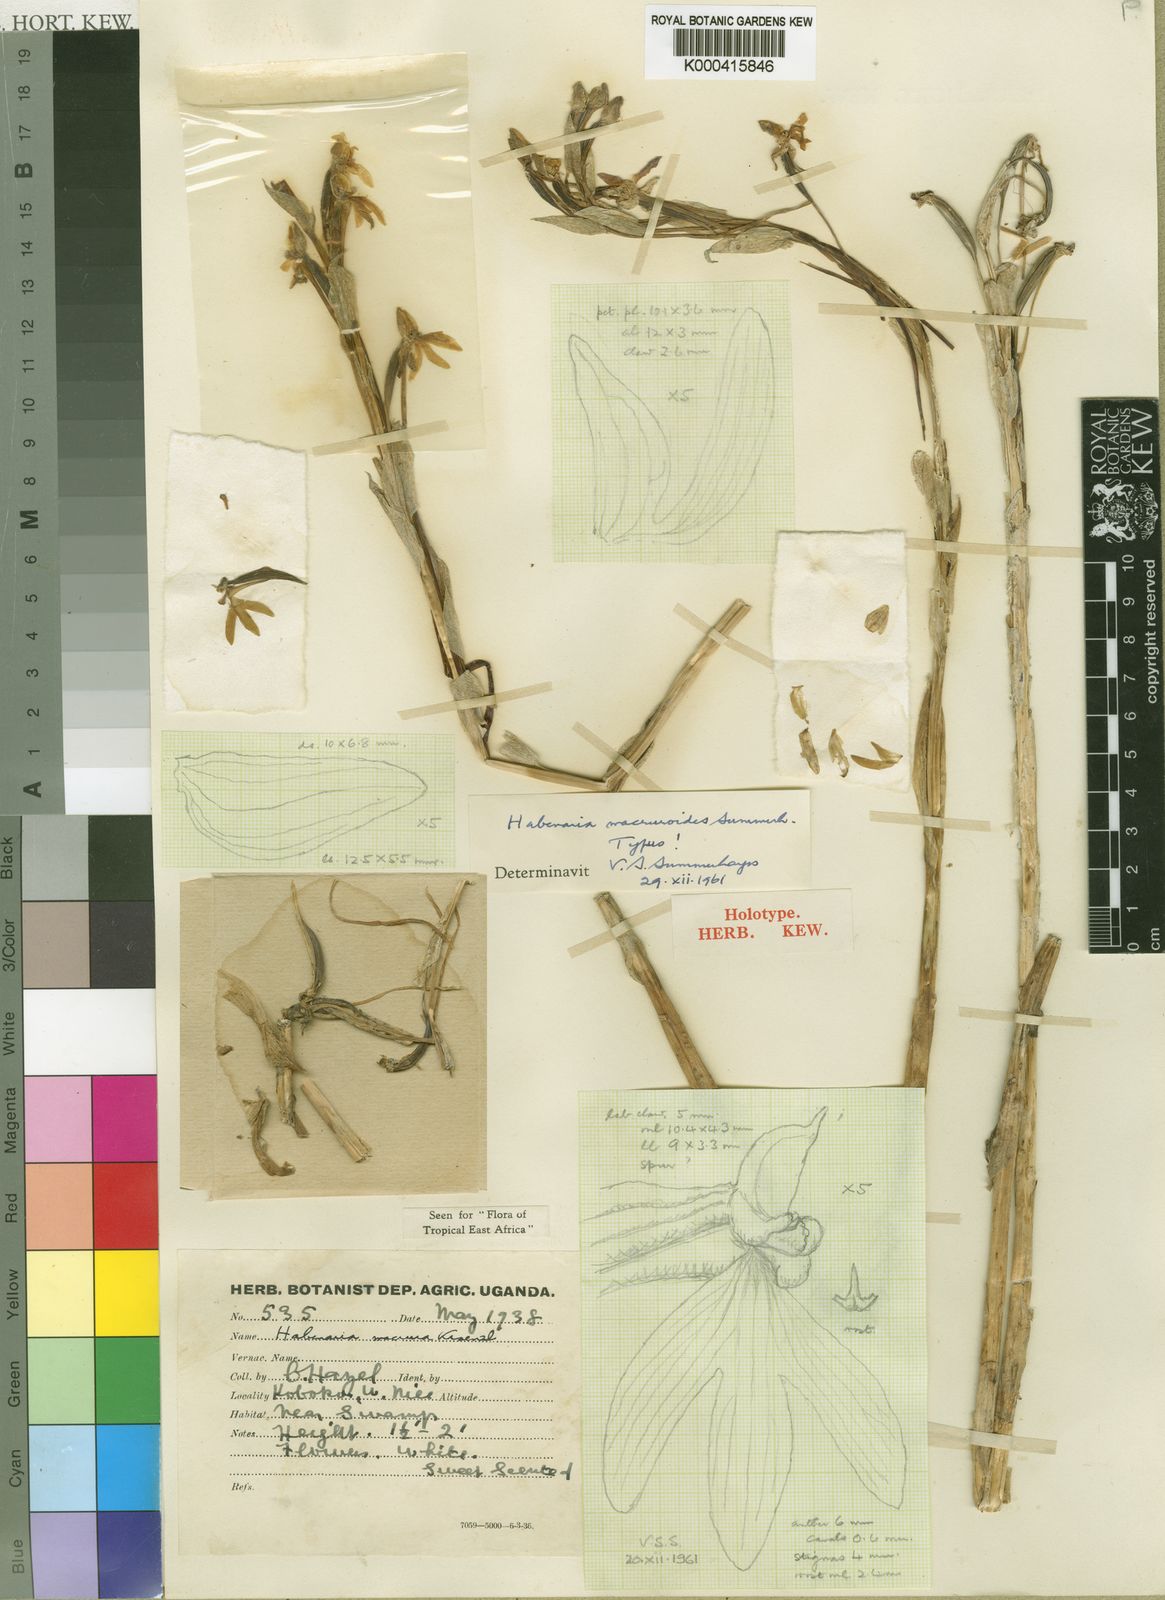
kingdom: Plantae
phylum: Tracheophyta
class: Liliopsida
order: Asparagales
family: Orchidaceae
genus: Habenaria
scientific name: Habenaria macruroides
